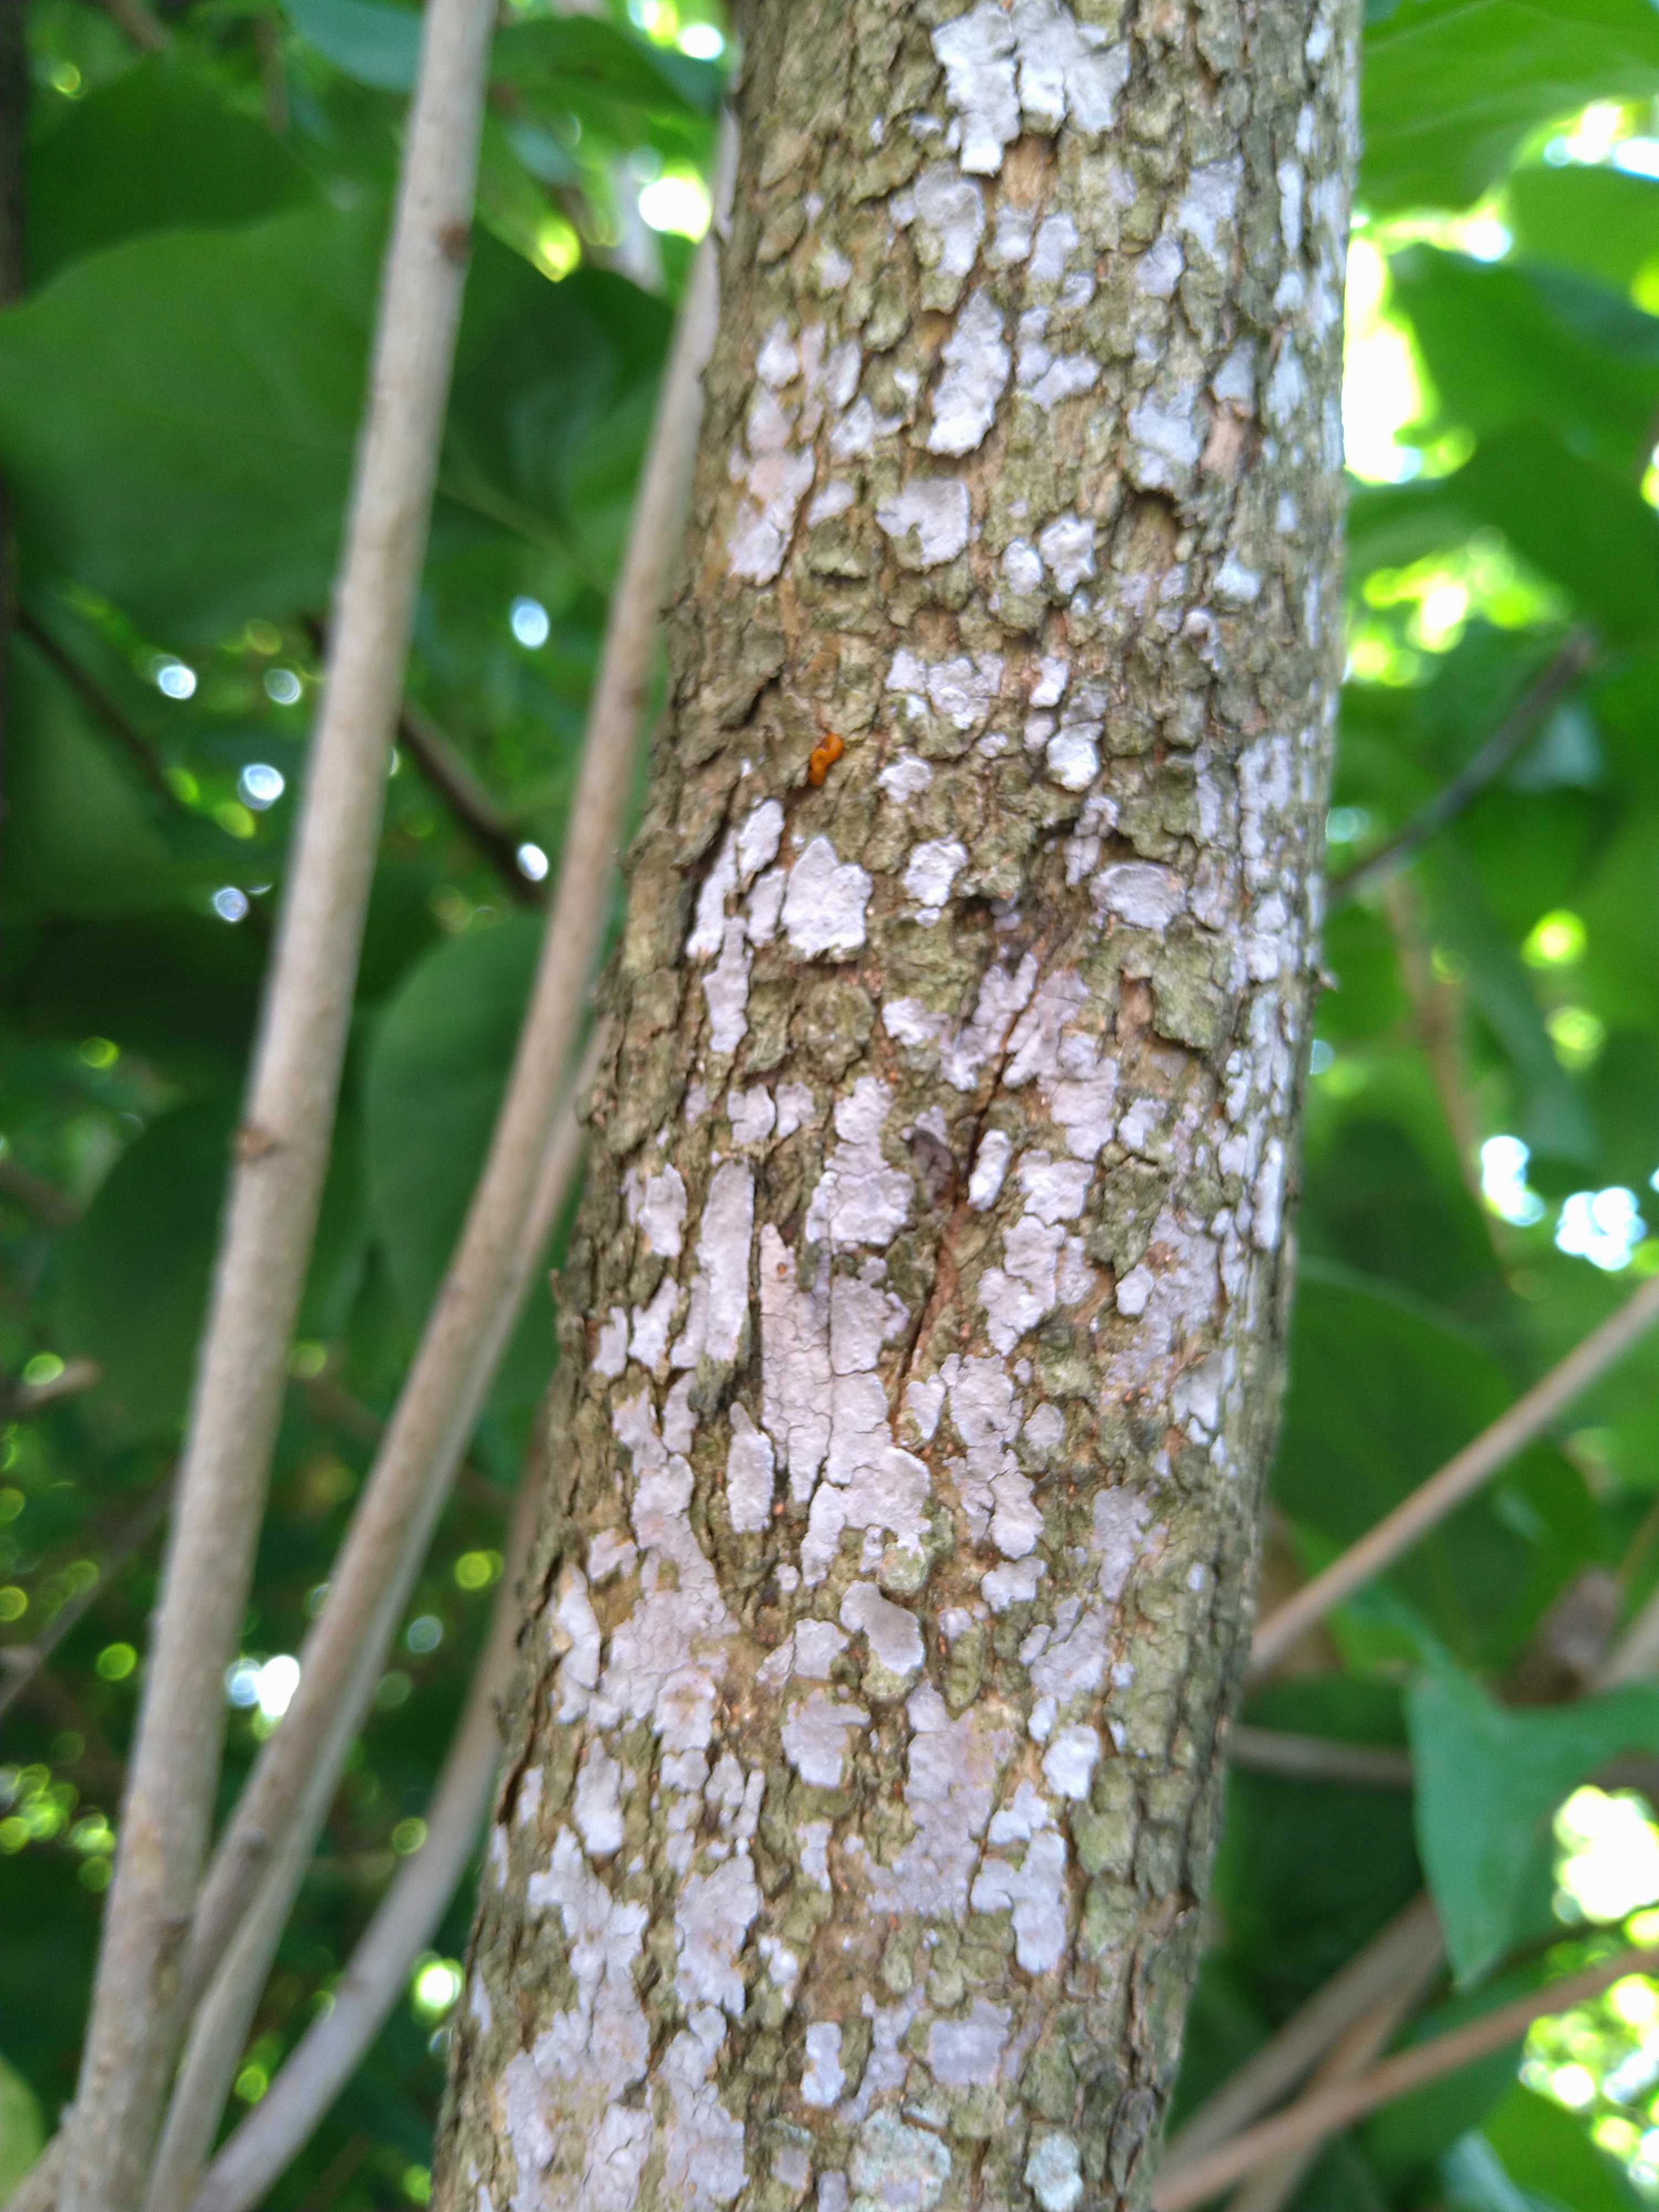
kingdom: Fungi
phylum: Basidiomycota
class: Agaricomycetes
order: Russulales
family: Peniophoraceae
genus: Peniophora
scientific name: Peniophora lycii
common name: grynet voksskind
